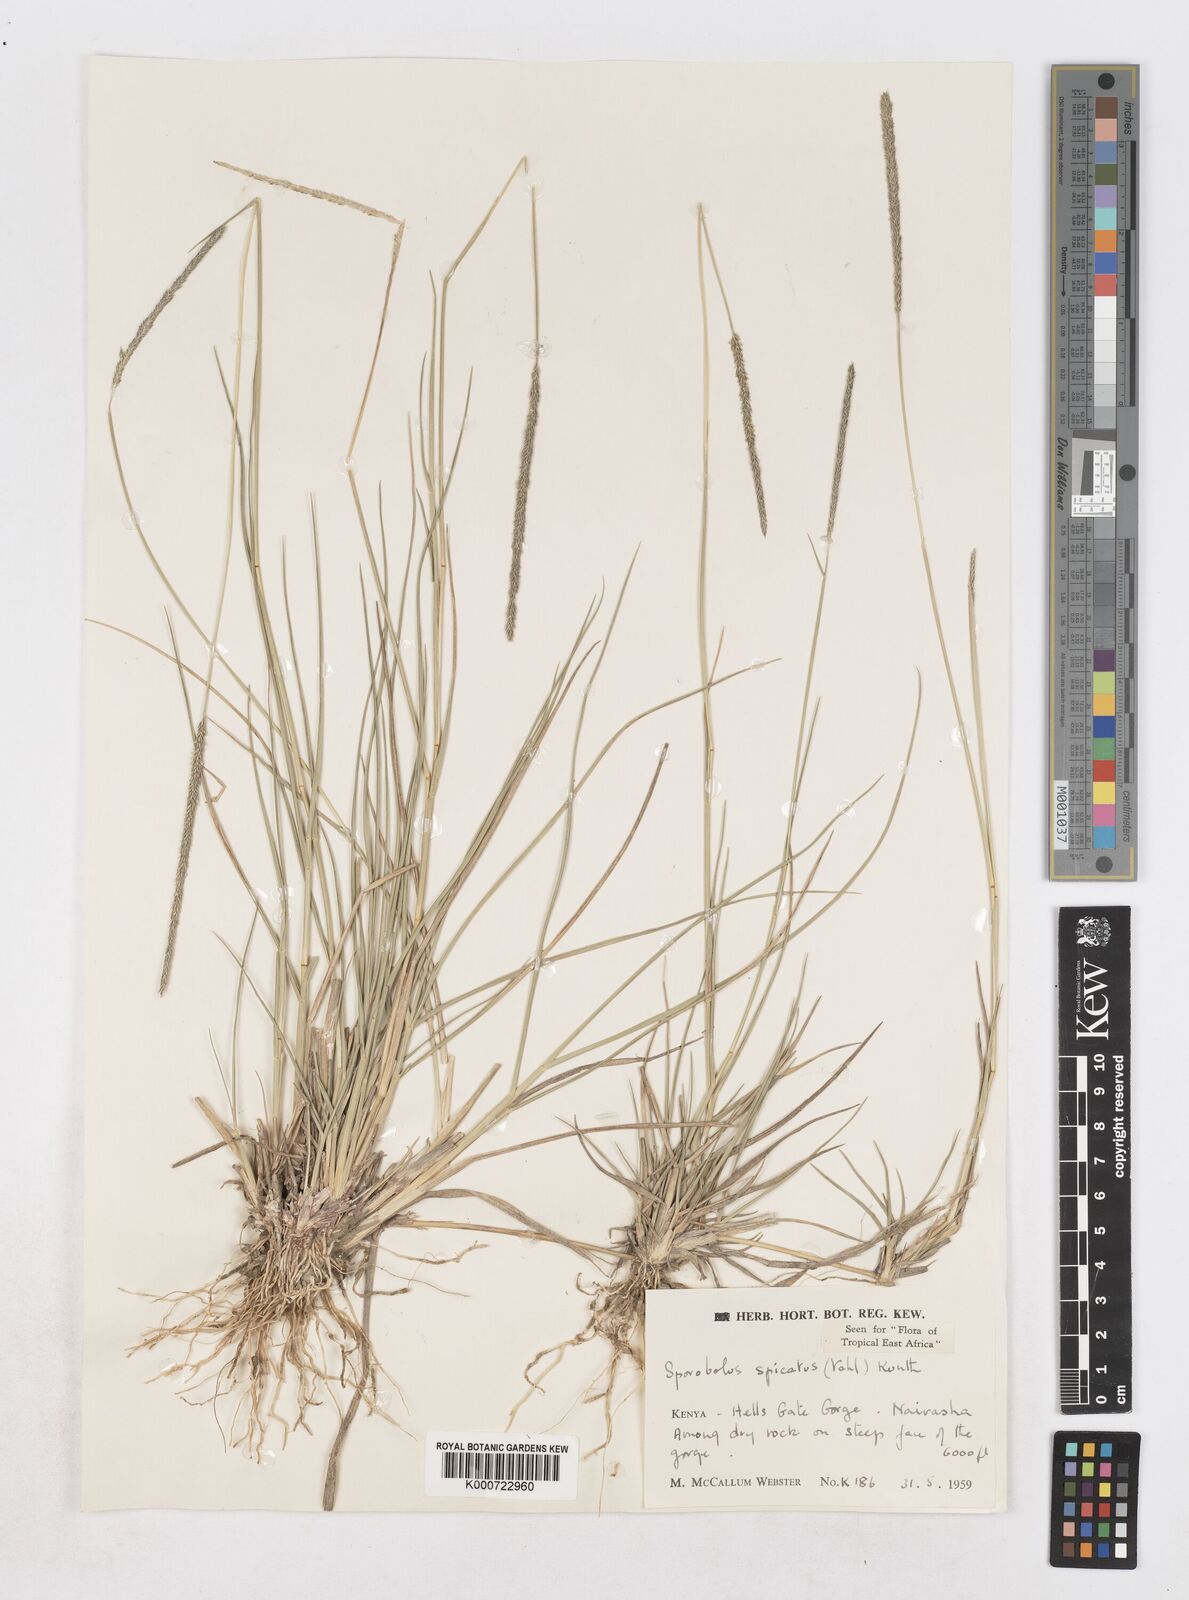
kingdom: Plantae
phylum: Tracheophyta
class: Liliopsida
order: Poales
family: Poaceae
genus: Sporobolus
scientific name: Sporobolus spicatus
